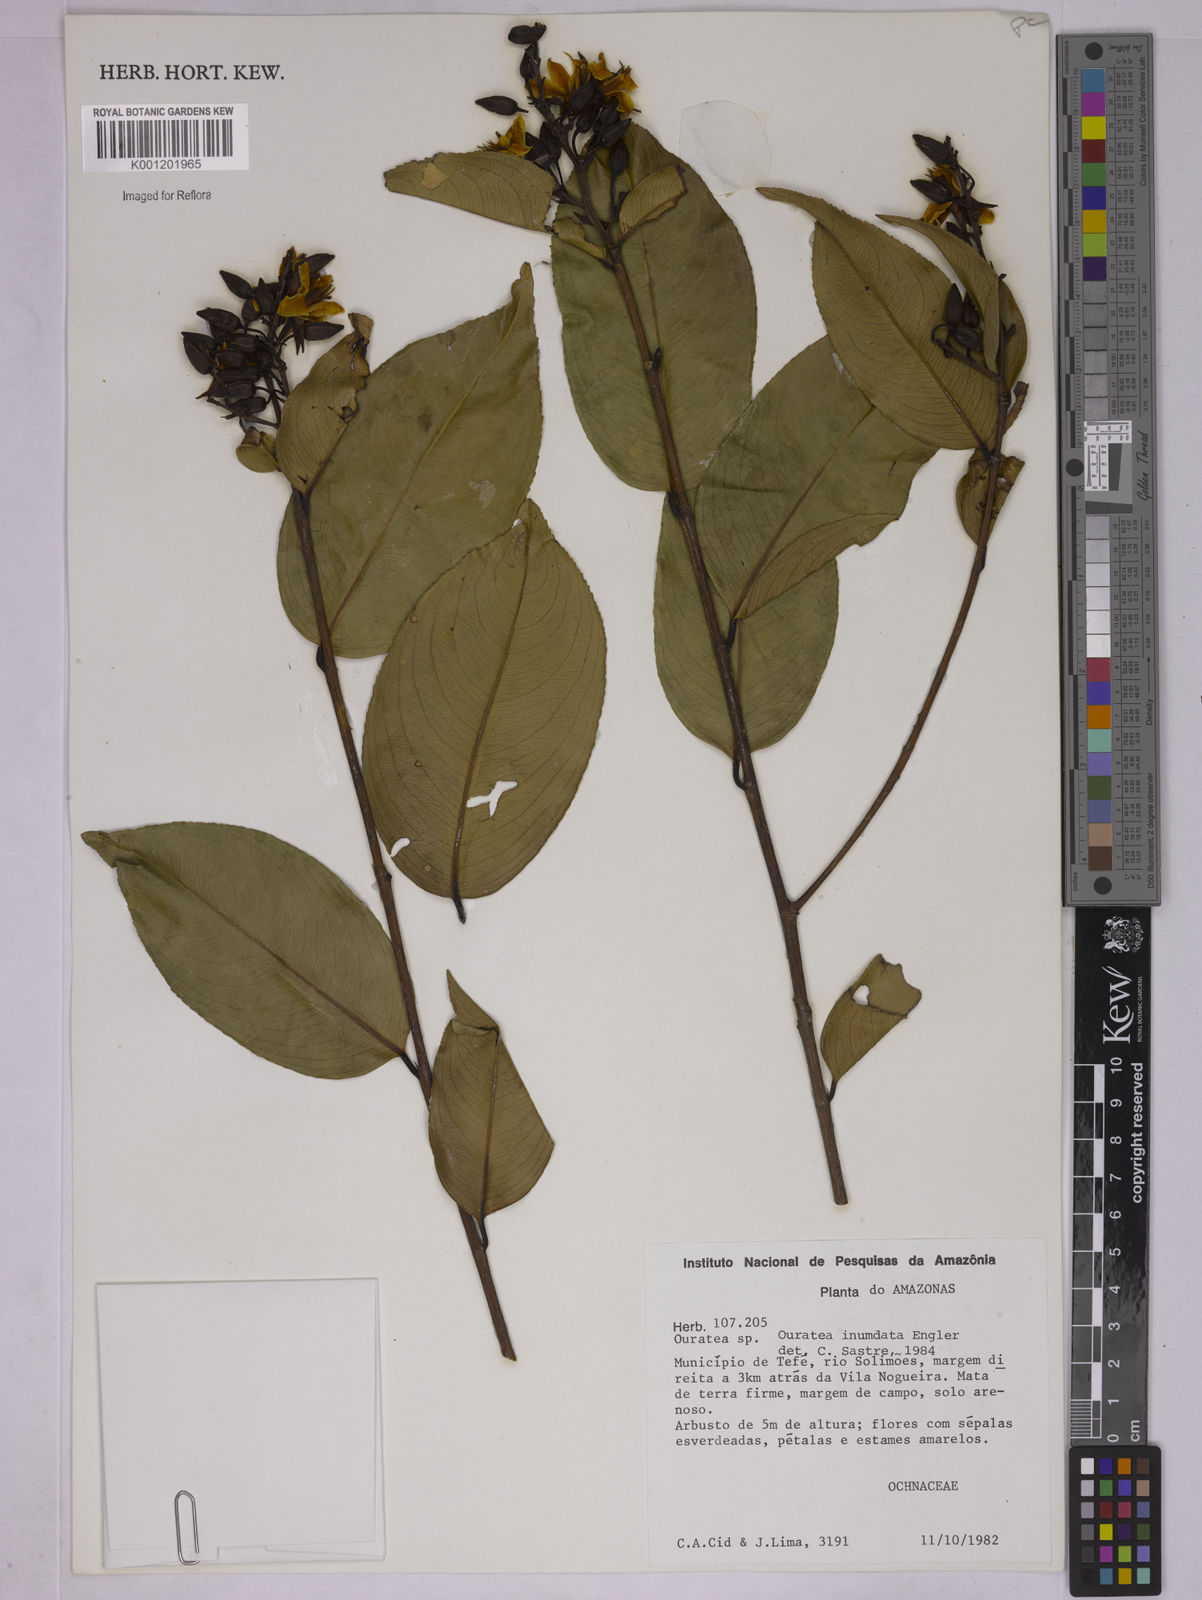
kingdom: Plantae
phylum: Tracheophyta
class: Magnoliopsida
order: Malpighiales
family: Ochnaceae
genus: Ouratea
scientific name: Ouratea inundata
